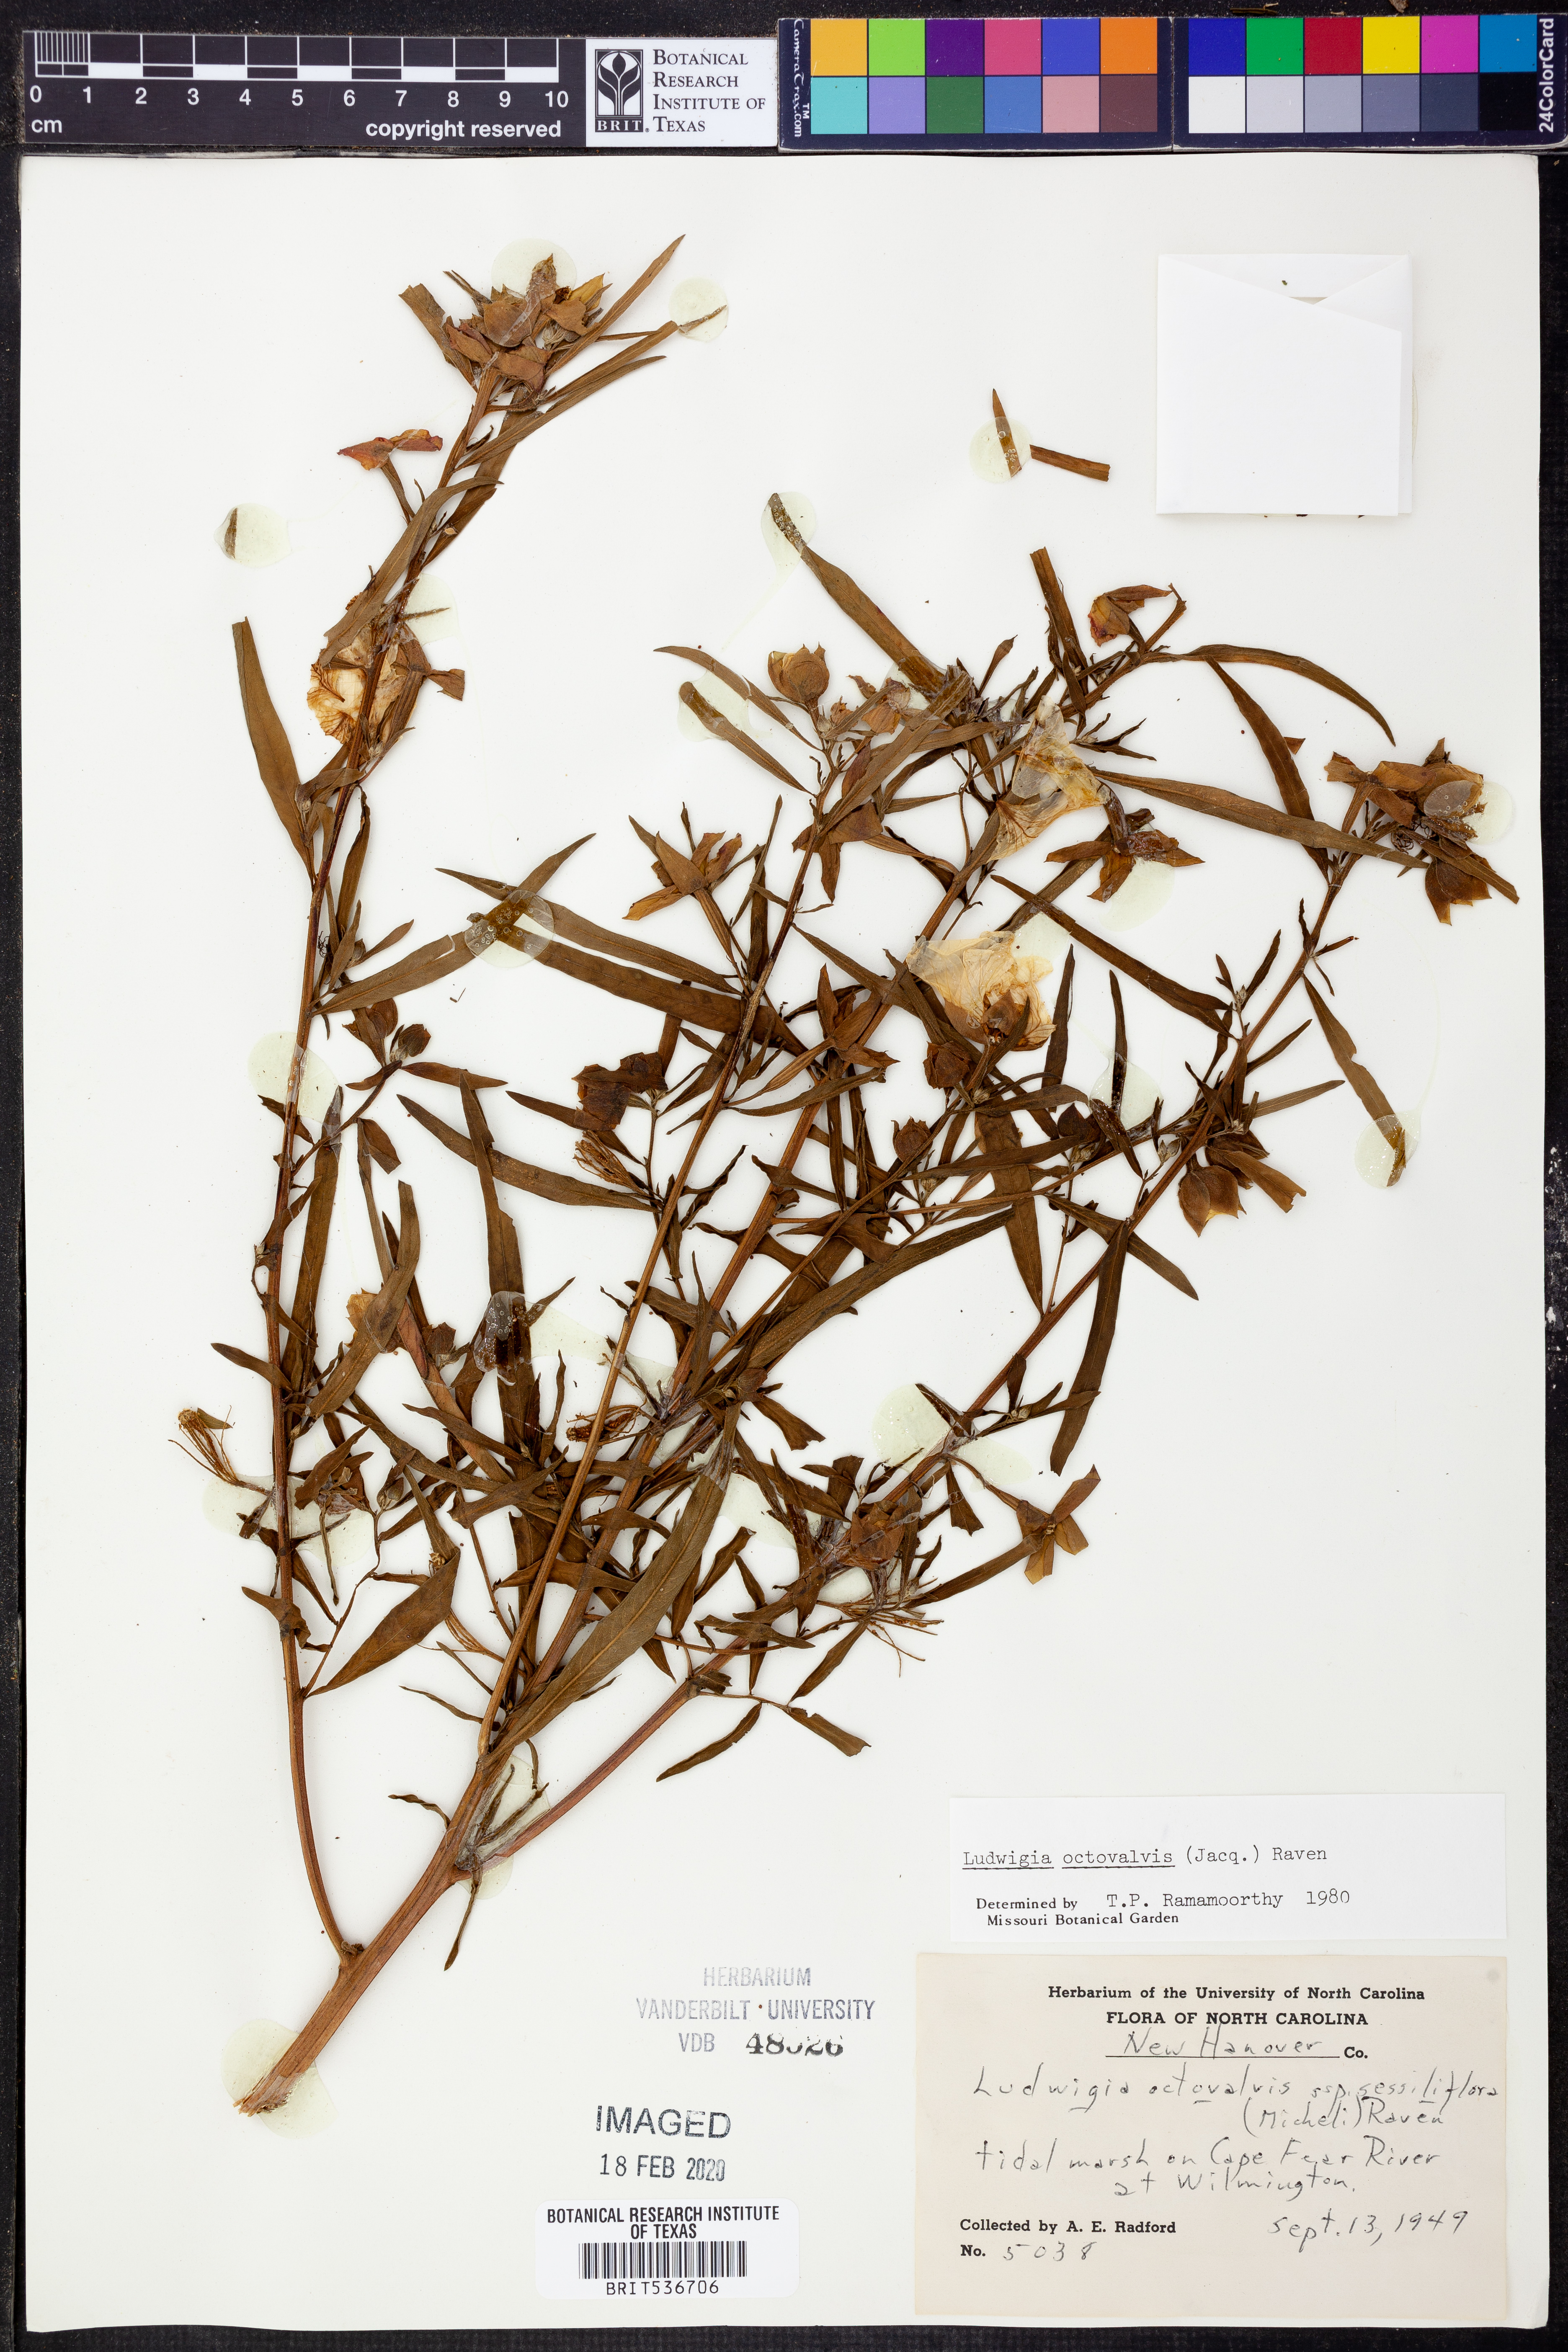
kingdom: Plantae
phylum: Tracheophyta
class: Magnoliopsida
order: Myrtales
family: Onagraceae
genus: Ludwigia
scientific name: Ludwigia octovalvis
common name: Water-primrose
